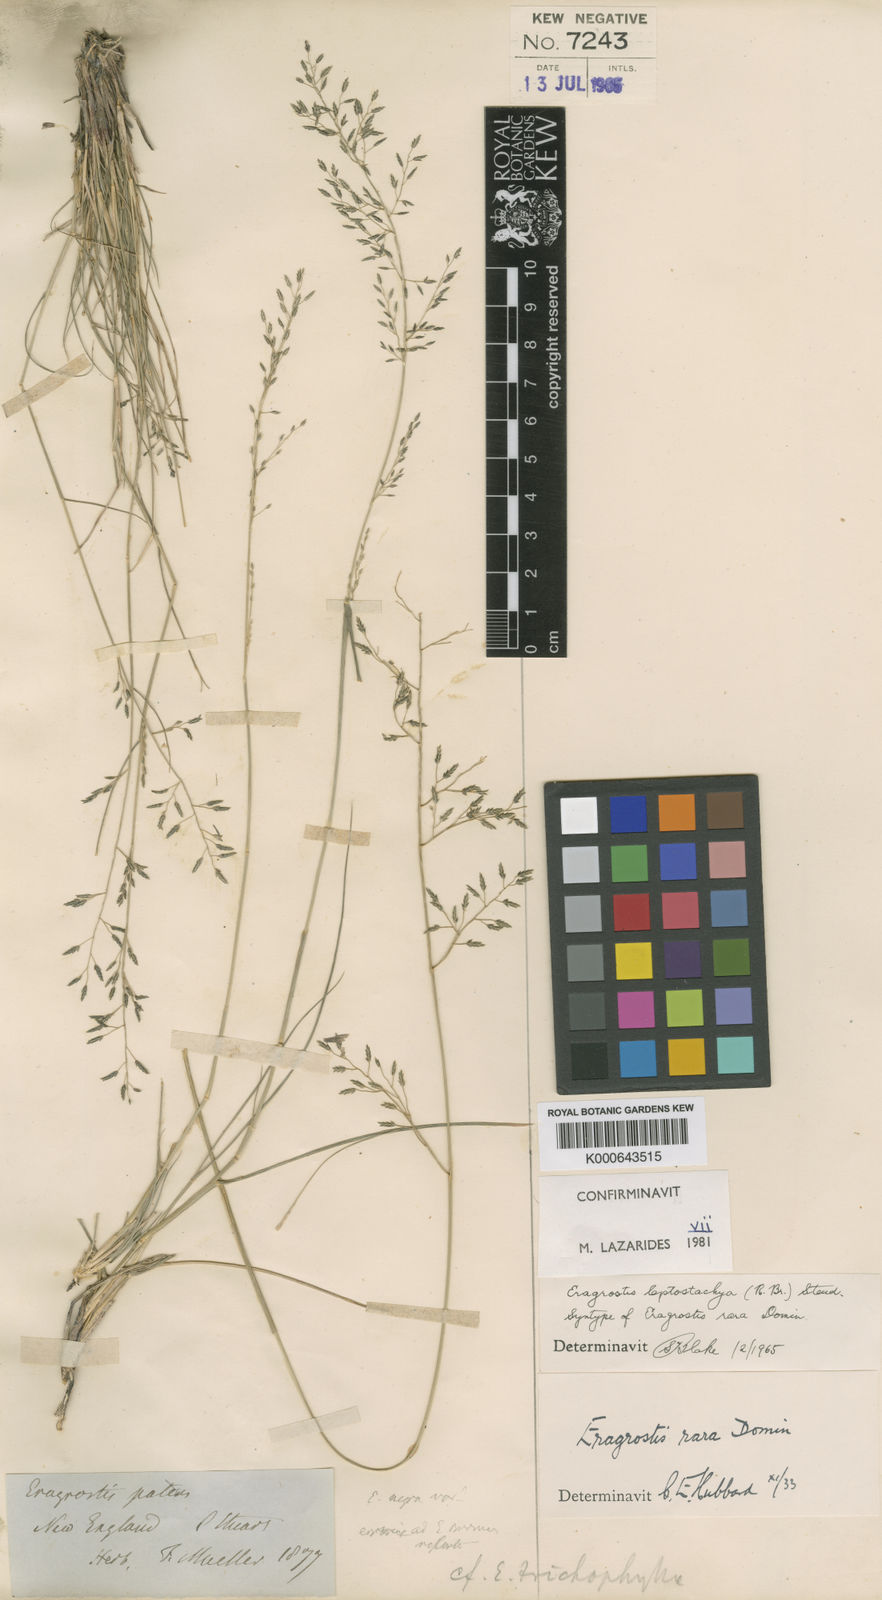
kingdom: Plantae
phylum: Tracheophyta
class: Liliopsida
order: Poales
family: Poaceae
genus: Eragrostis
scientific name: Eragrostis leptostachya
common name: Australian lovegrass
